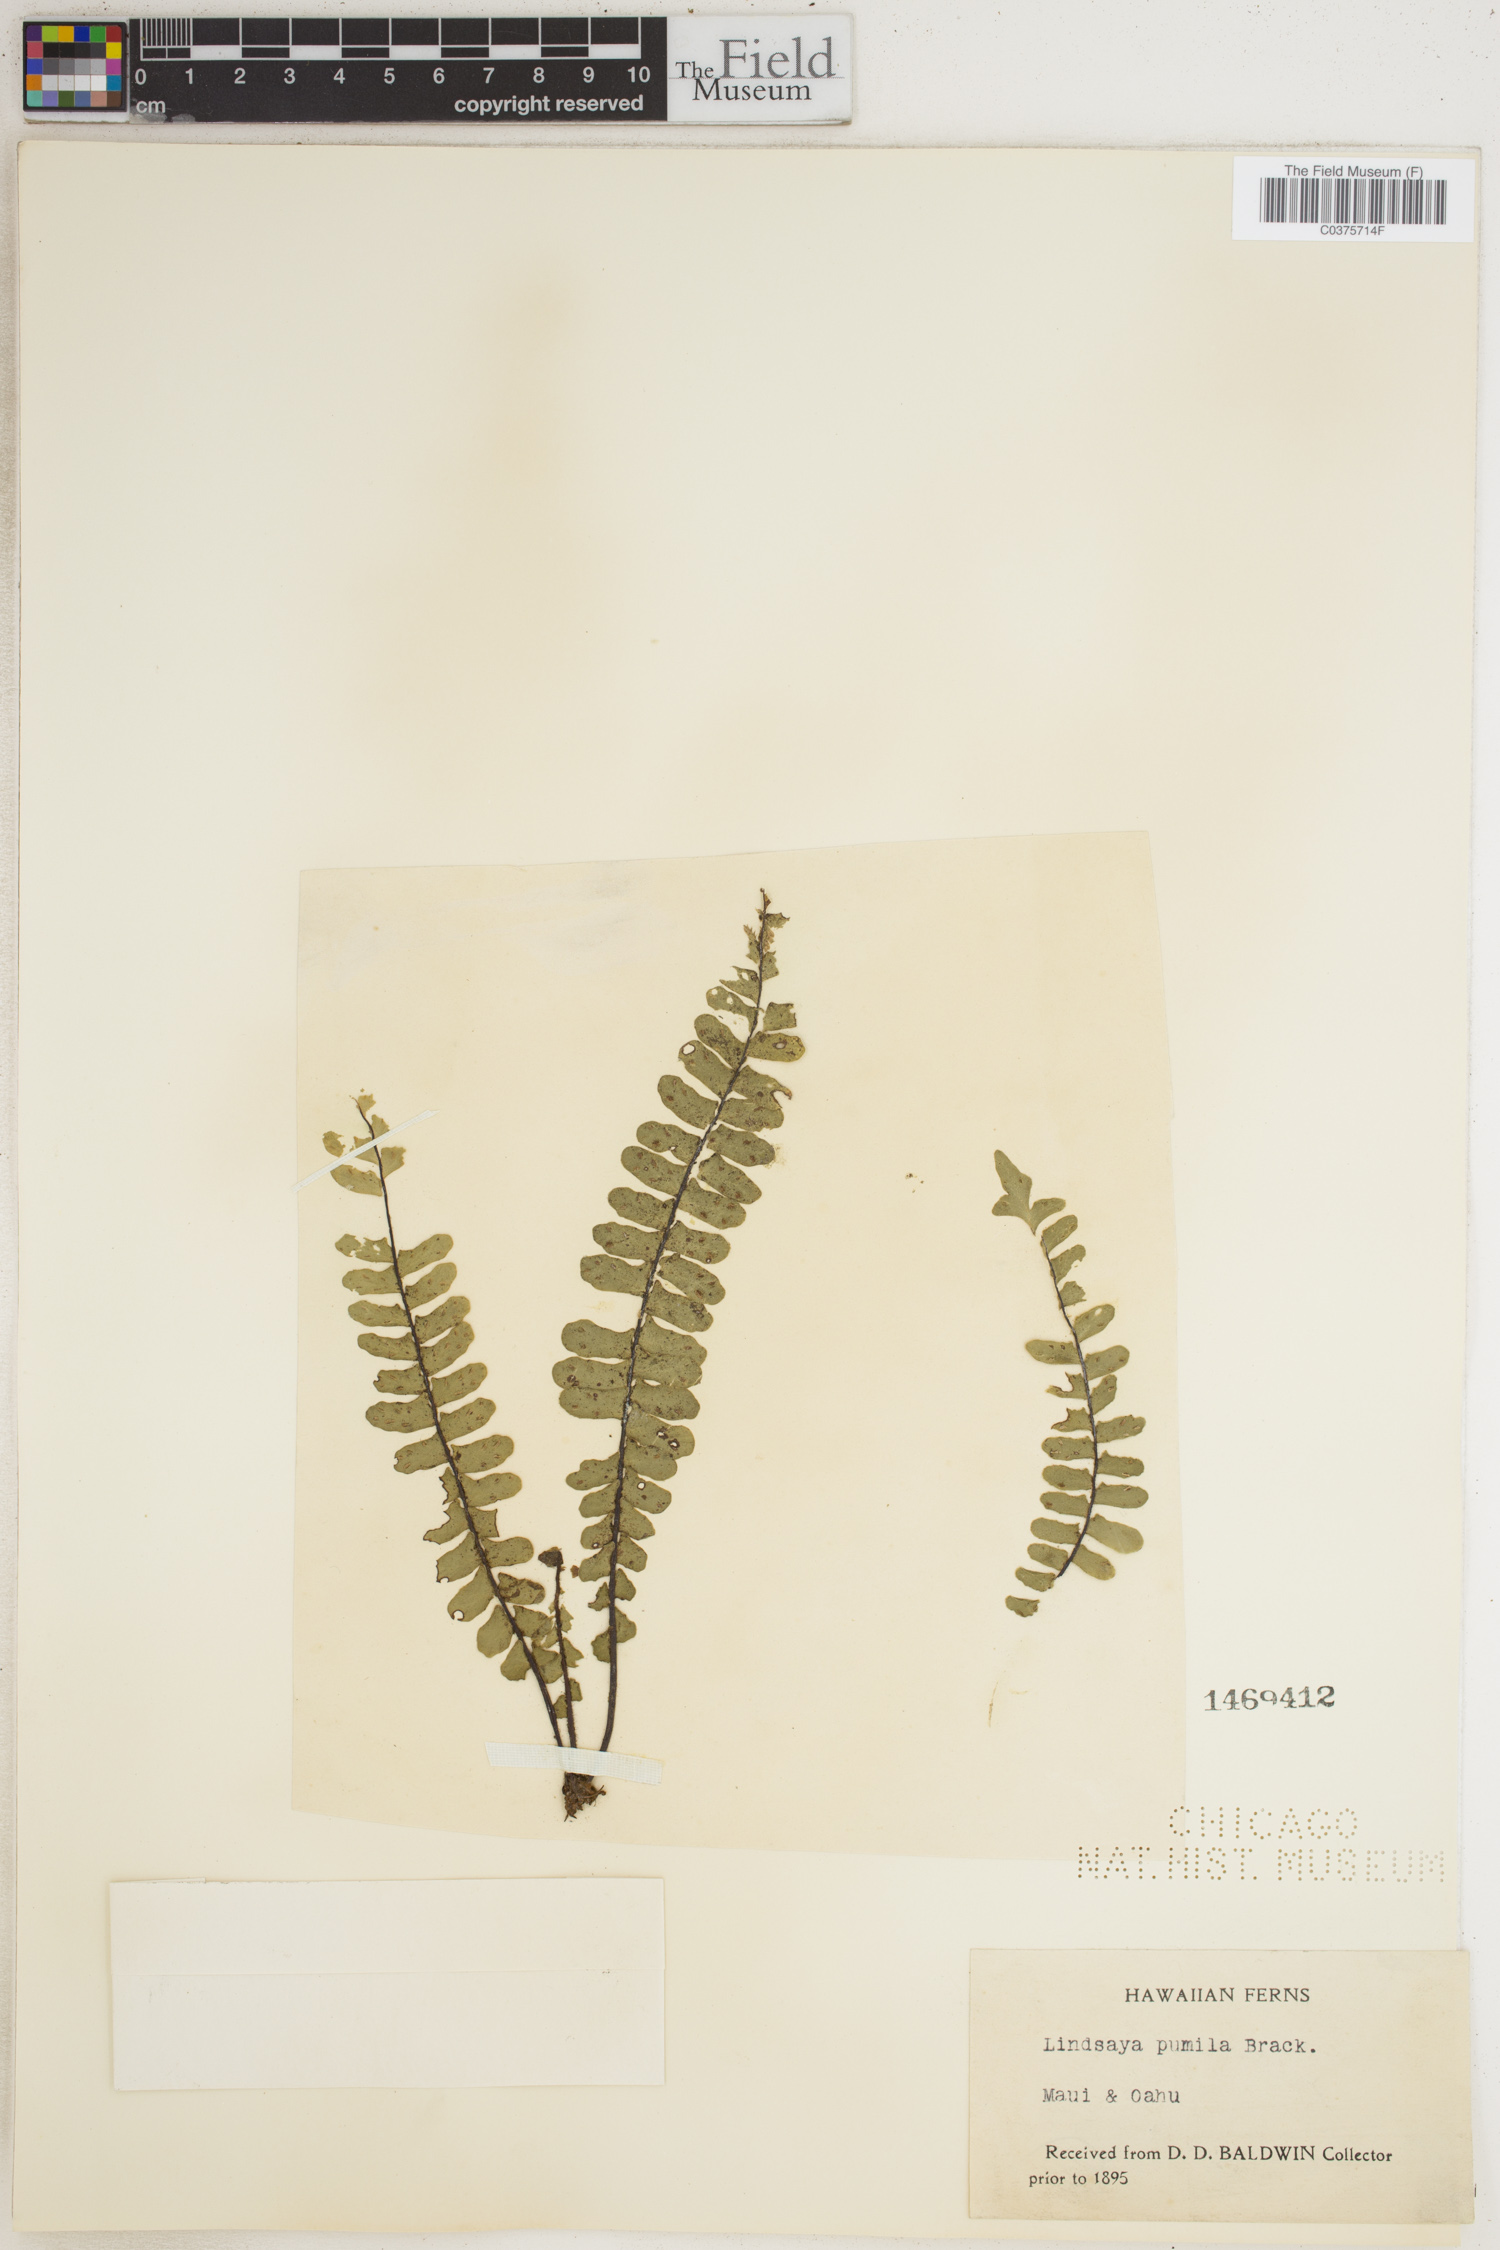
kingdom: Plantae
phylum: Tracheophyta
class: Polypodiopsida
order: Polypodiales
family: Lindsaeaceae
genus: Lindsaea
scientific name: Lindsaea pumila
